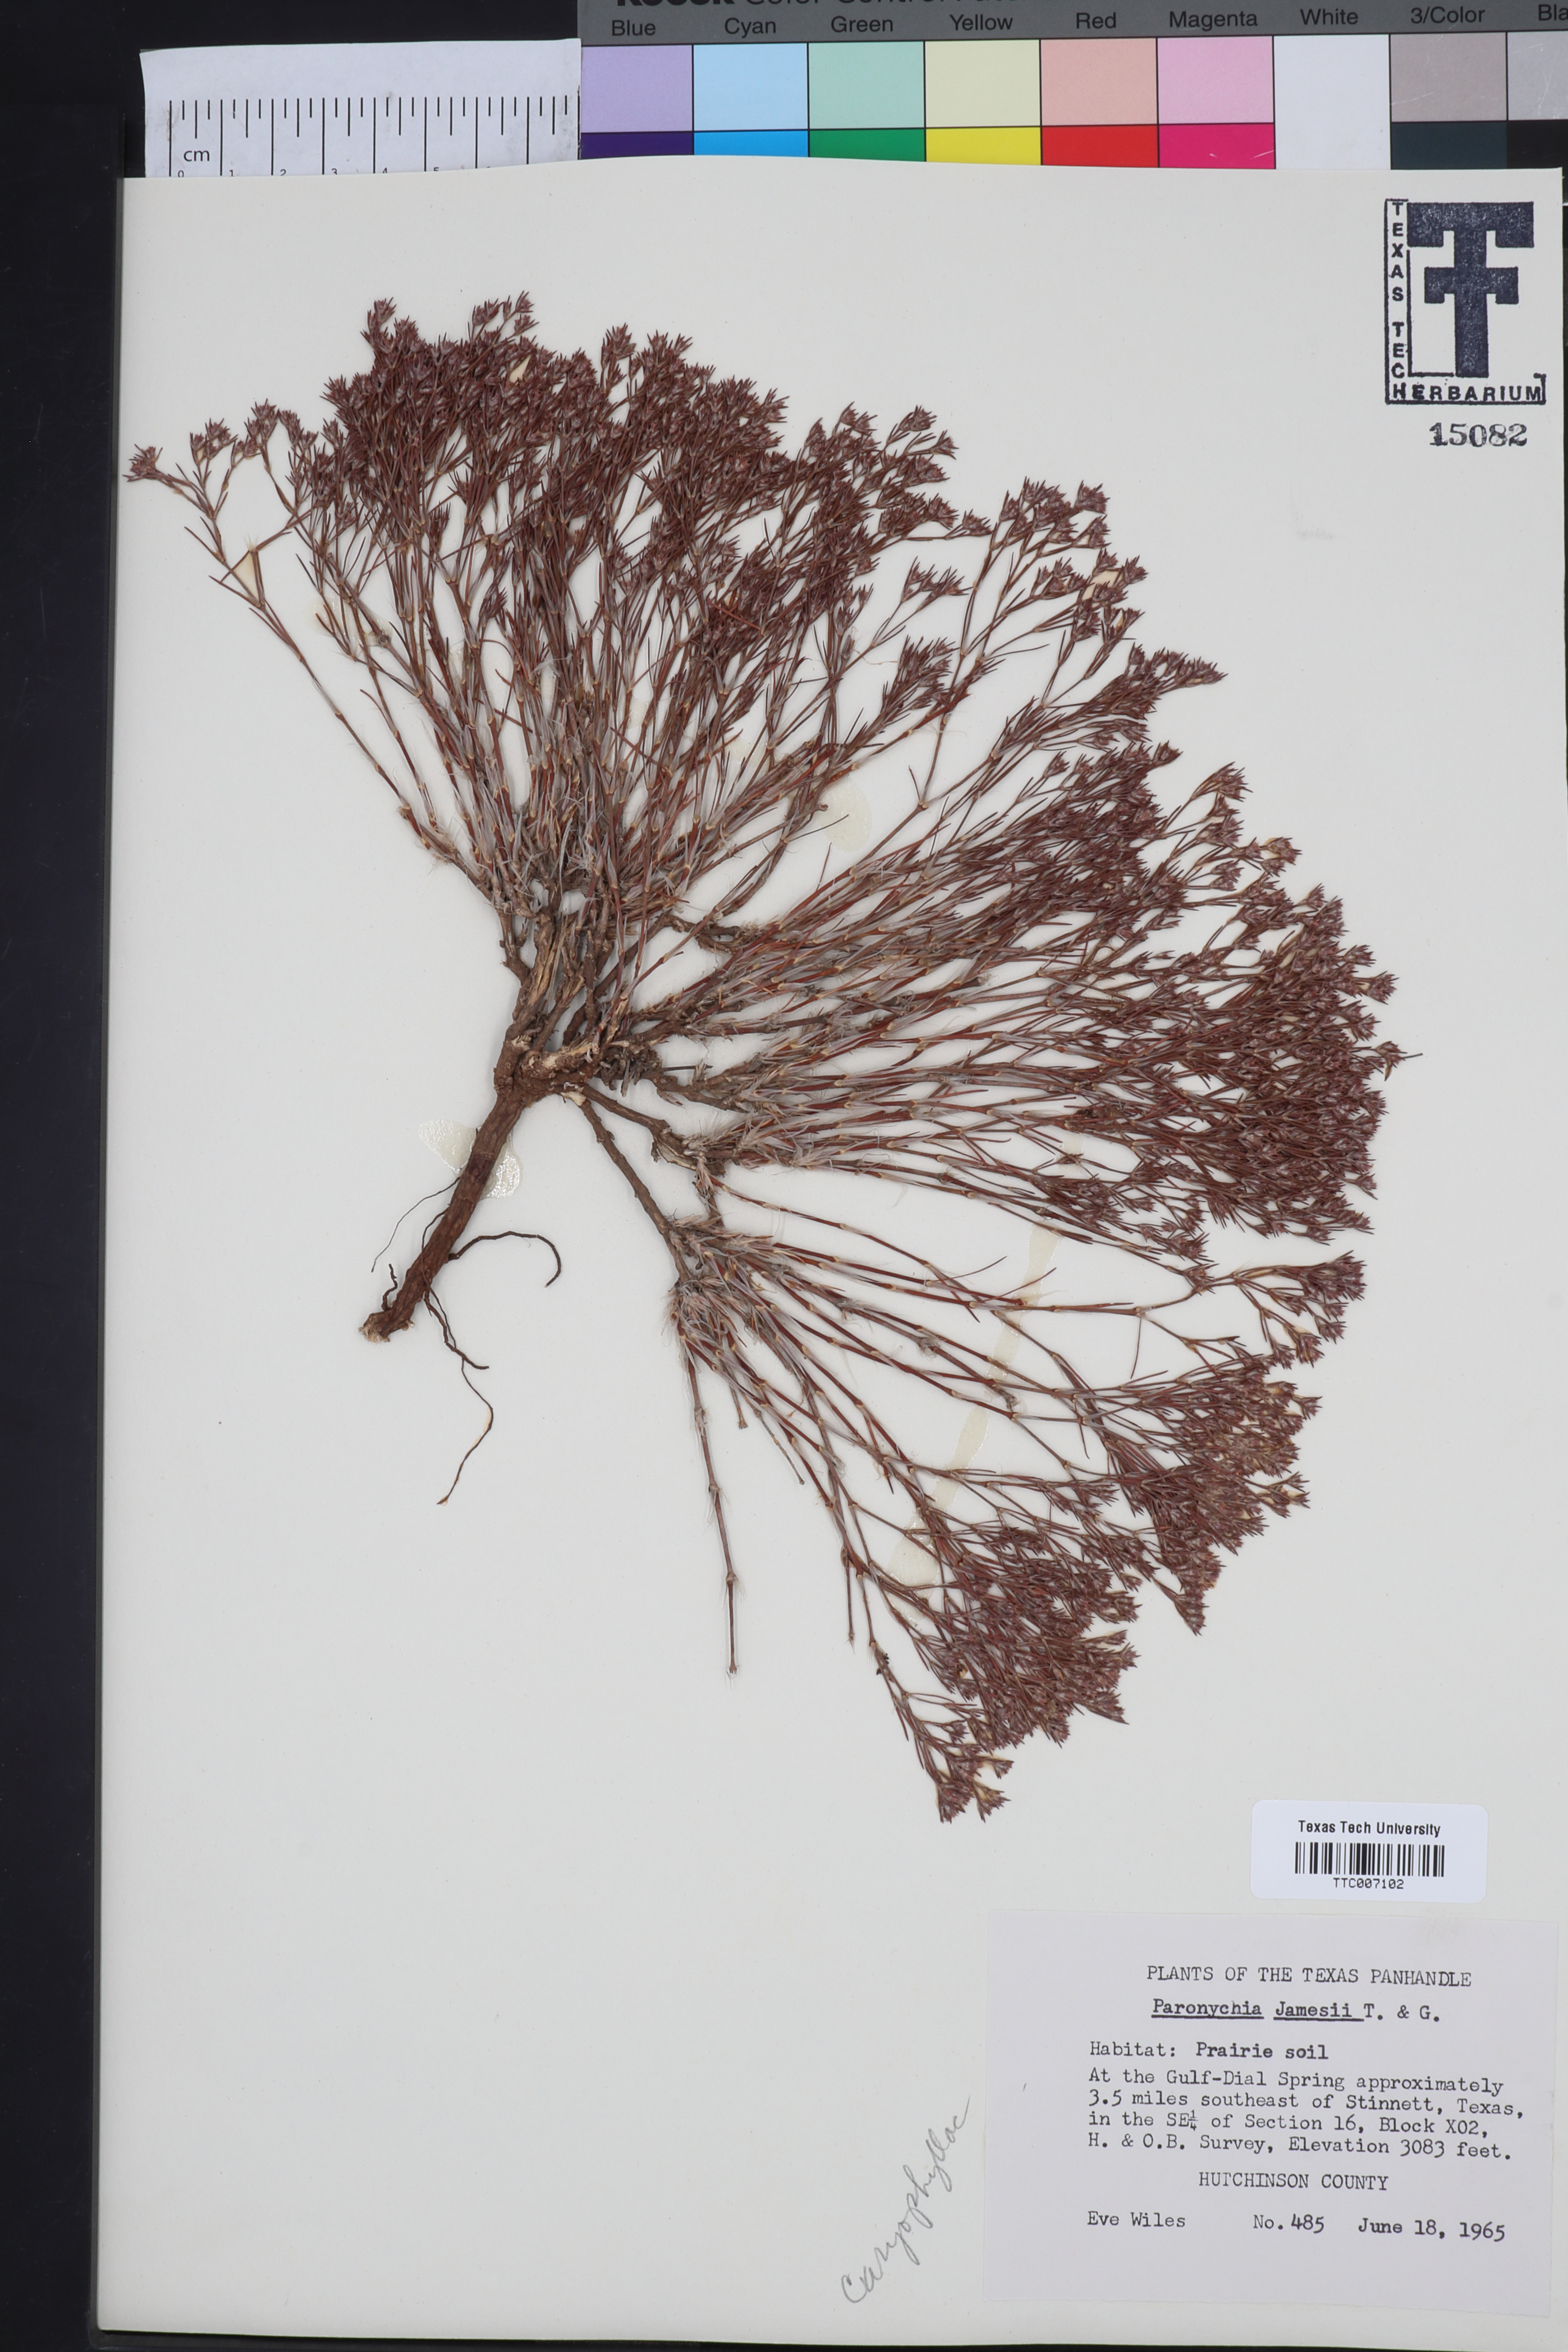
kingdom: Plantae
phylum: Tracheophyta
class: Magnoliopsida
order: Caryophyllales
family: Caryophyllaceae
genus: Paronychia
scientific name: Paronychia jamesii
